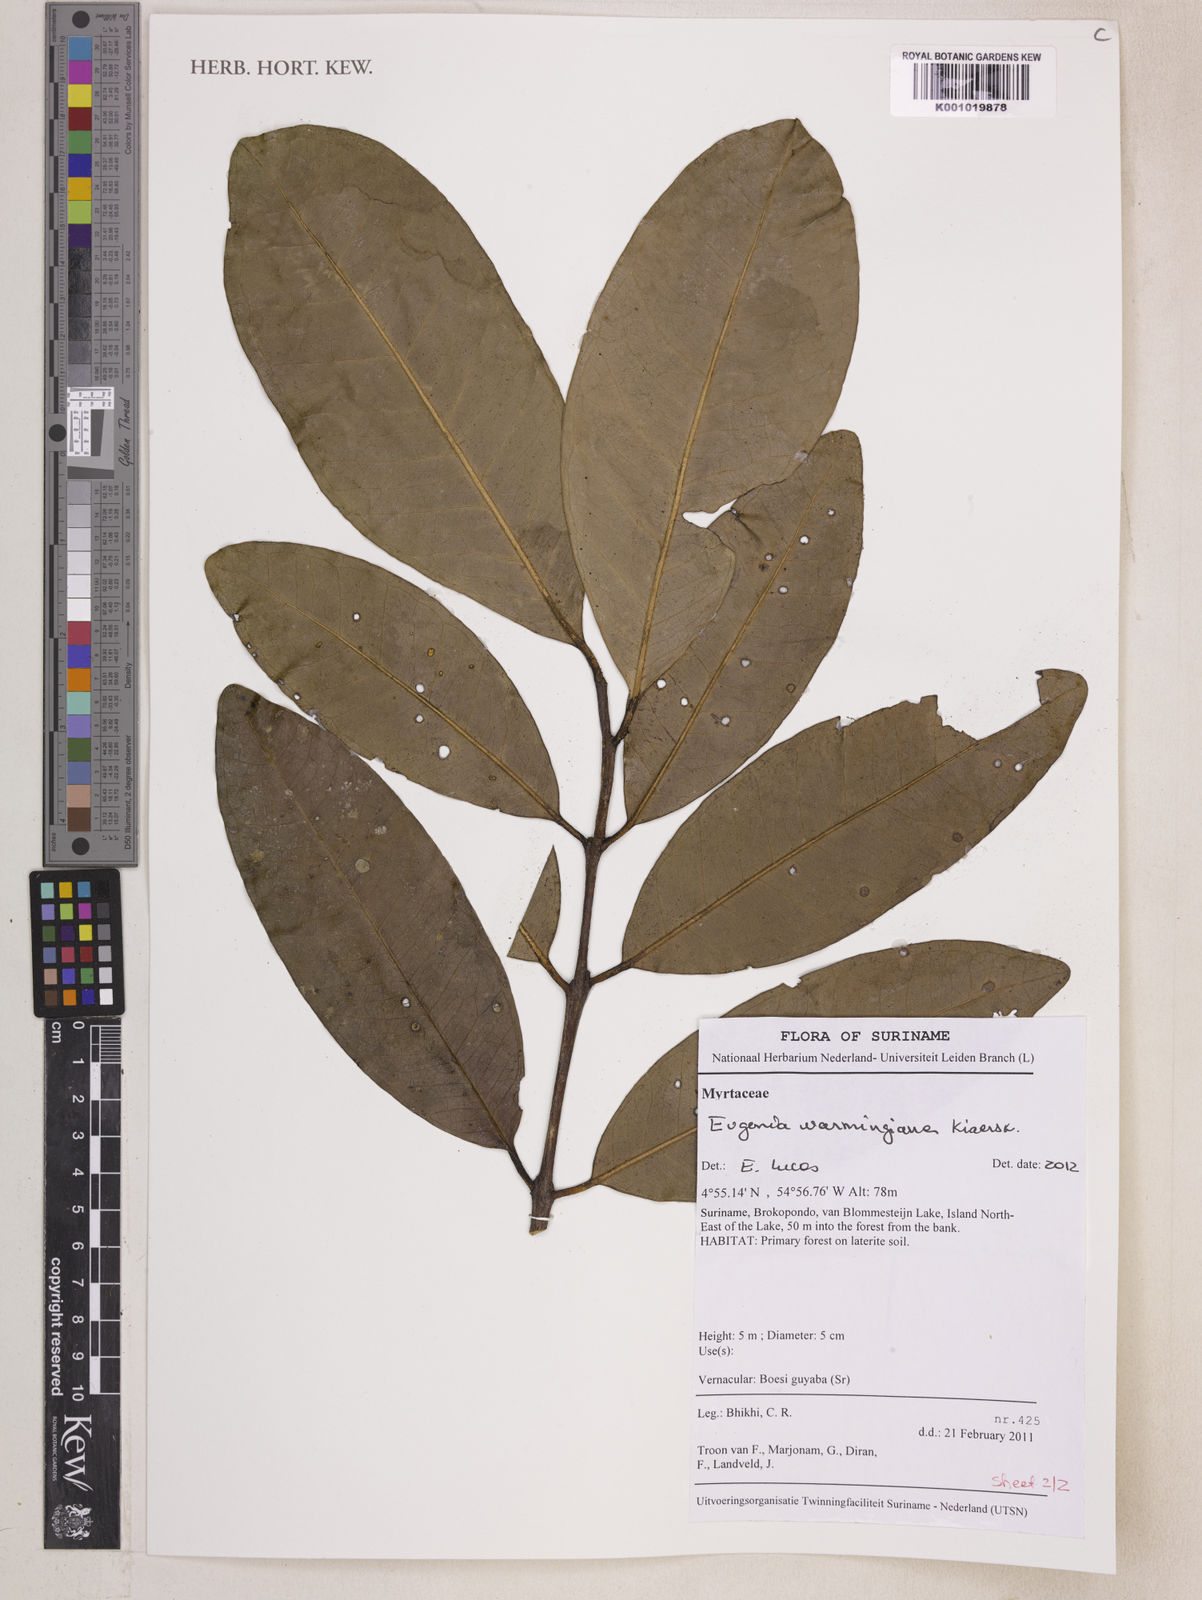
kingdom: Plantae
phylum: Tracheophyta
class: Magnoliopsida
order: Myrtales
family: Myrtaceae
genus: Eugenia
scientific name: Eugenia warmingiana
